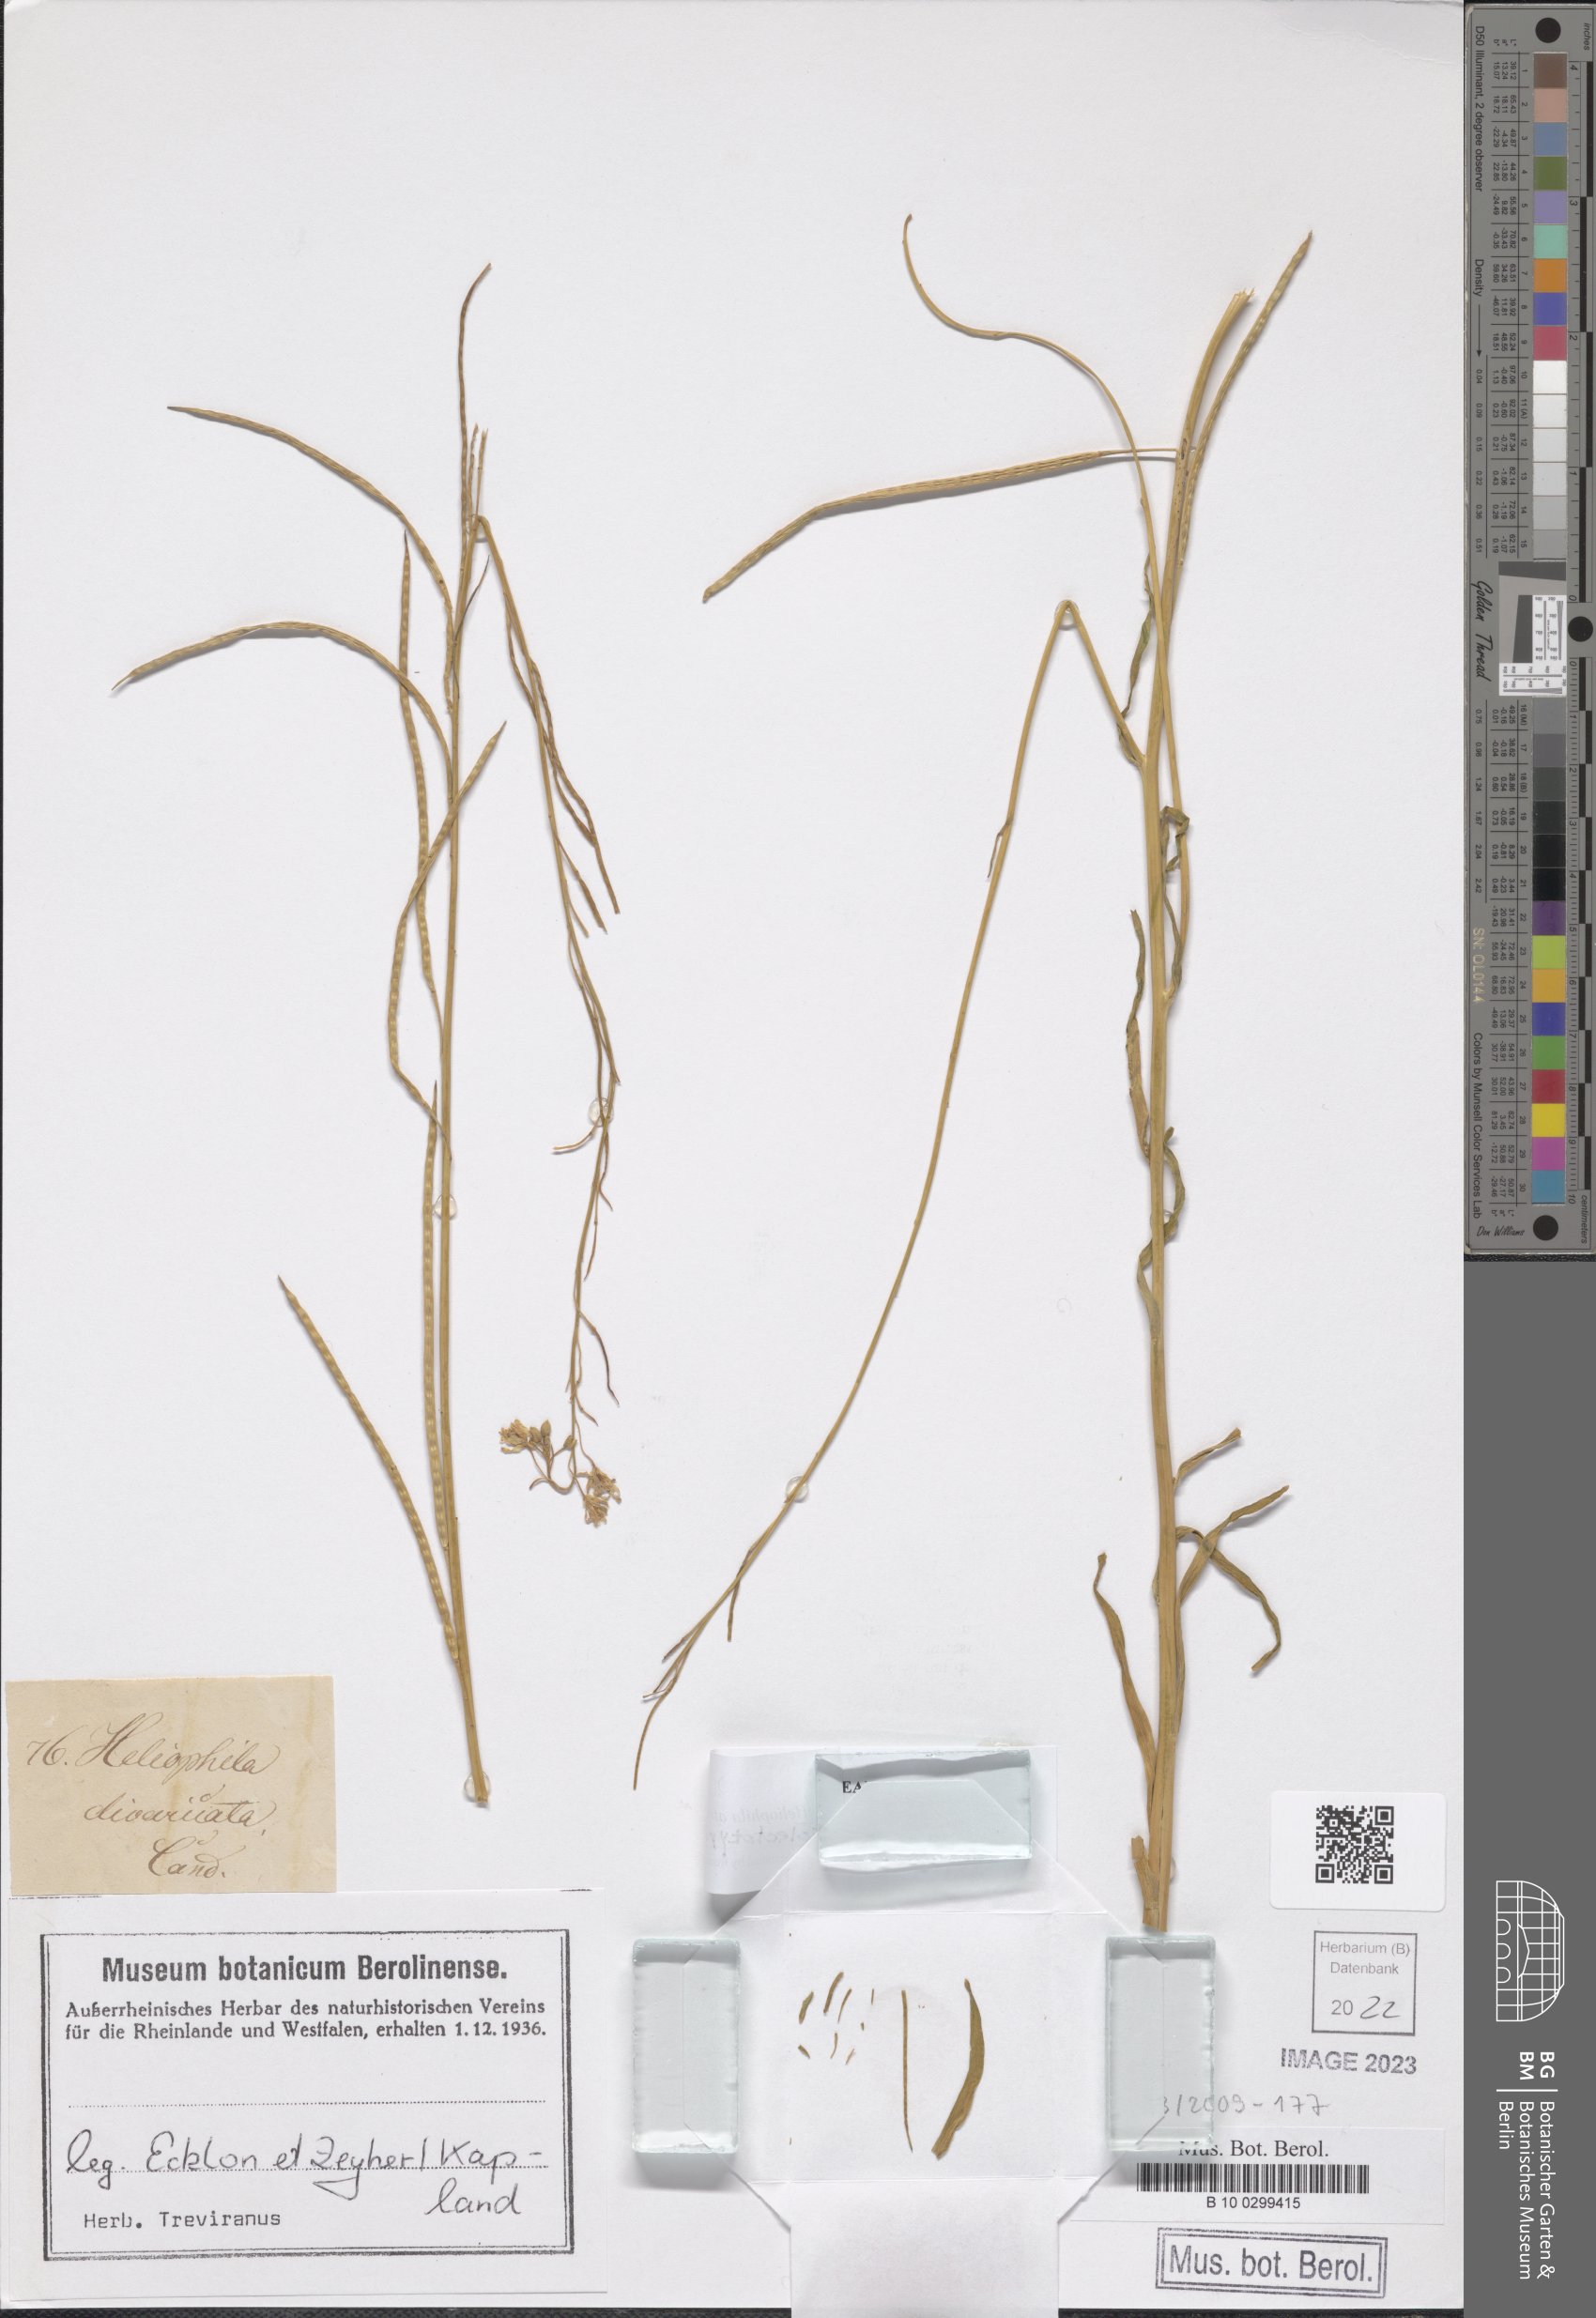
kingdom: Plantae
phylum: Tracheophyta
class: Magnoliopsida
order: Brassicales
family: Brassicaceae
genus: Heliophila
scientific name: Heliophila africana
